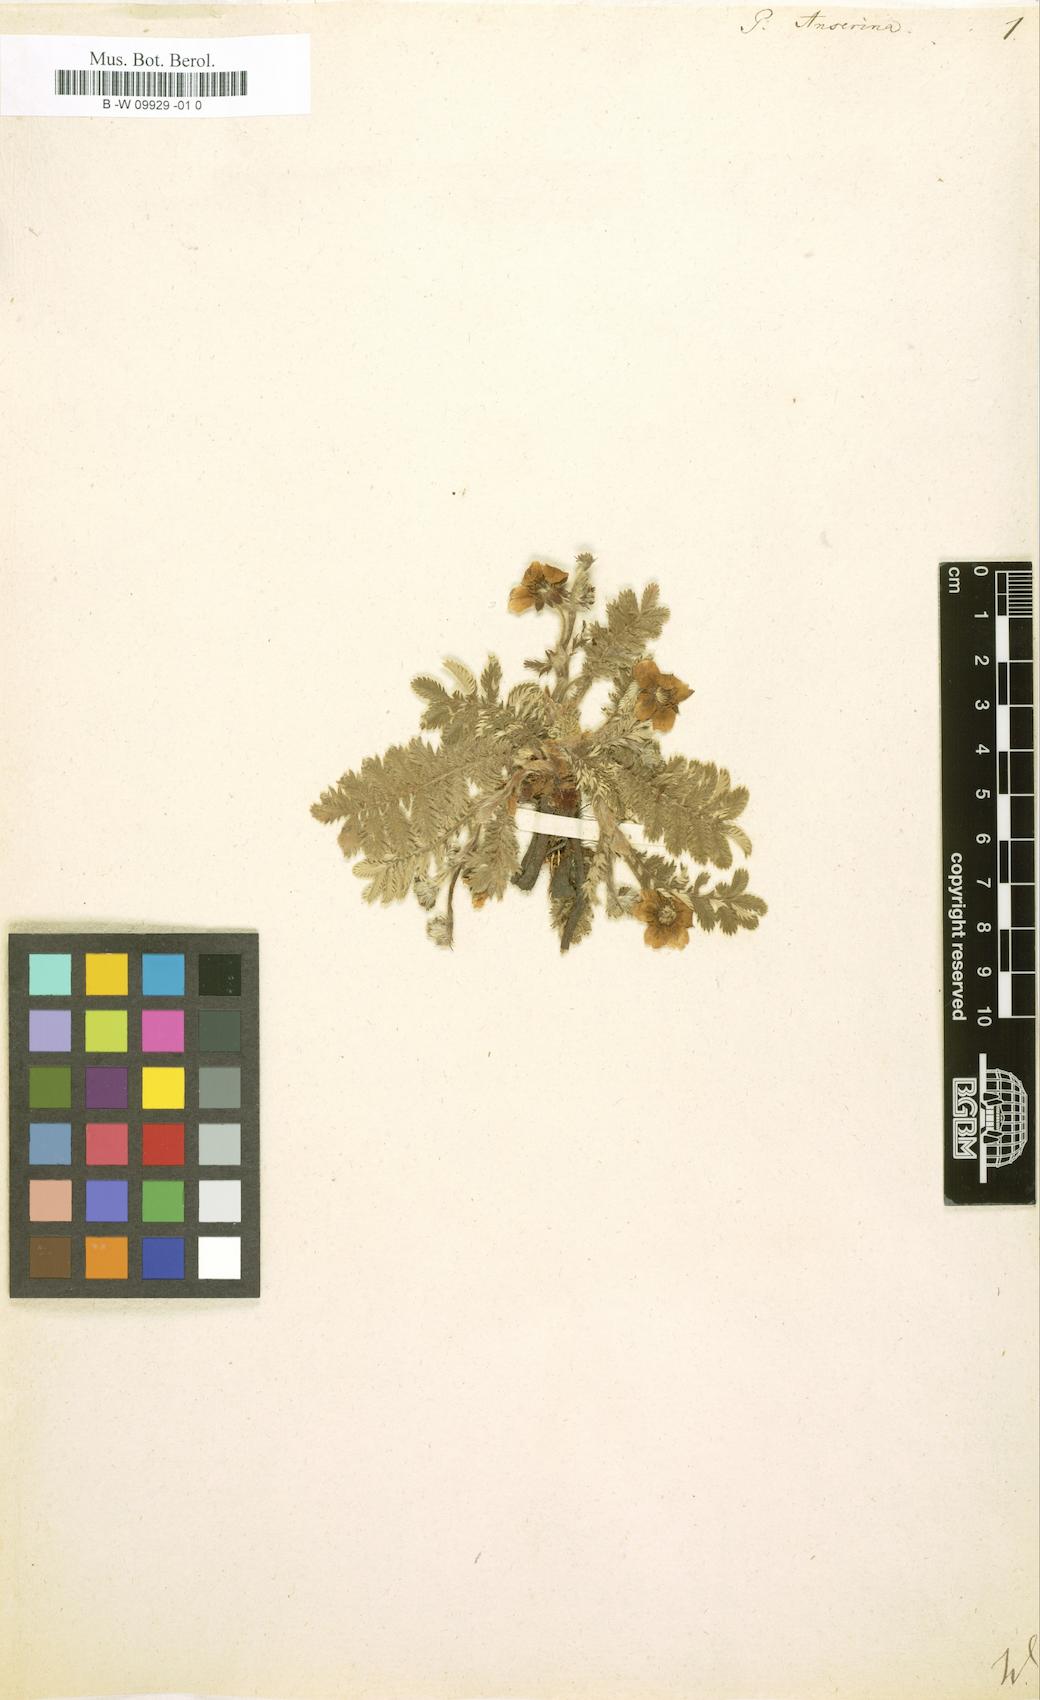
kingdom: Plantae
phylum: Tracheophyta
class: Magnoliopsida
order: Rosales
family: Rosaceae
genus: Argentina
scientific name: Argentina anserina
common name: Common silverweed
